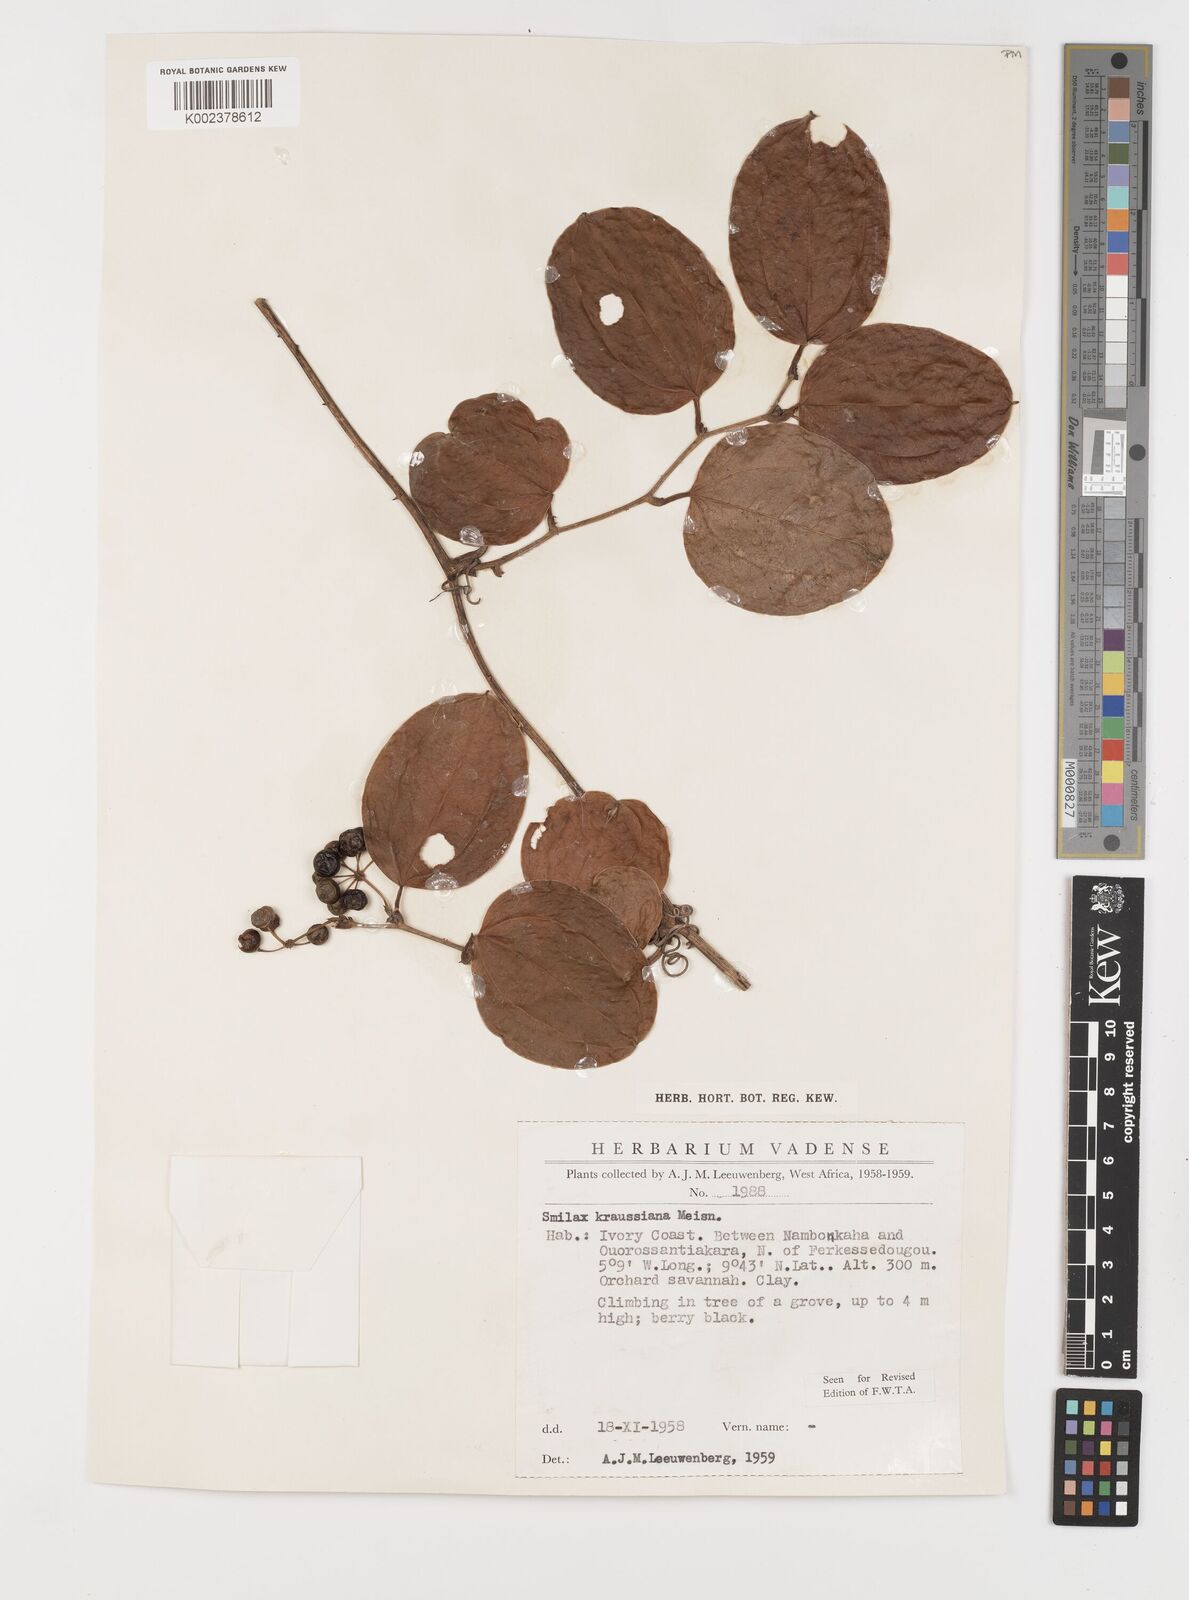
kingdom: Plantae
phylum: Tracheophyta
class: Liliopsida
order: Liliales
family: Smilacaceae
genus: Smilax
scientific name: Smilax anceps
